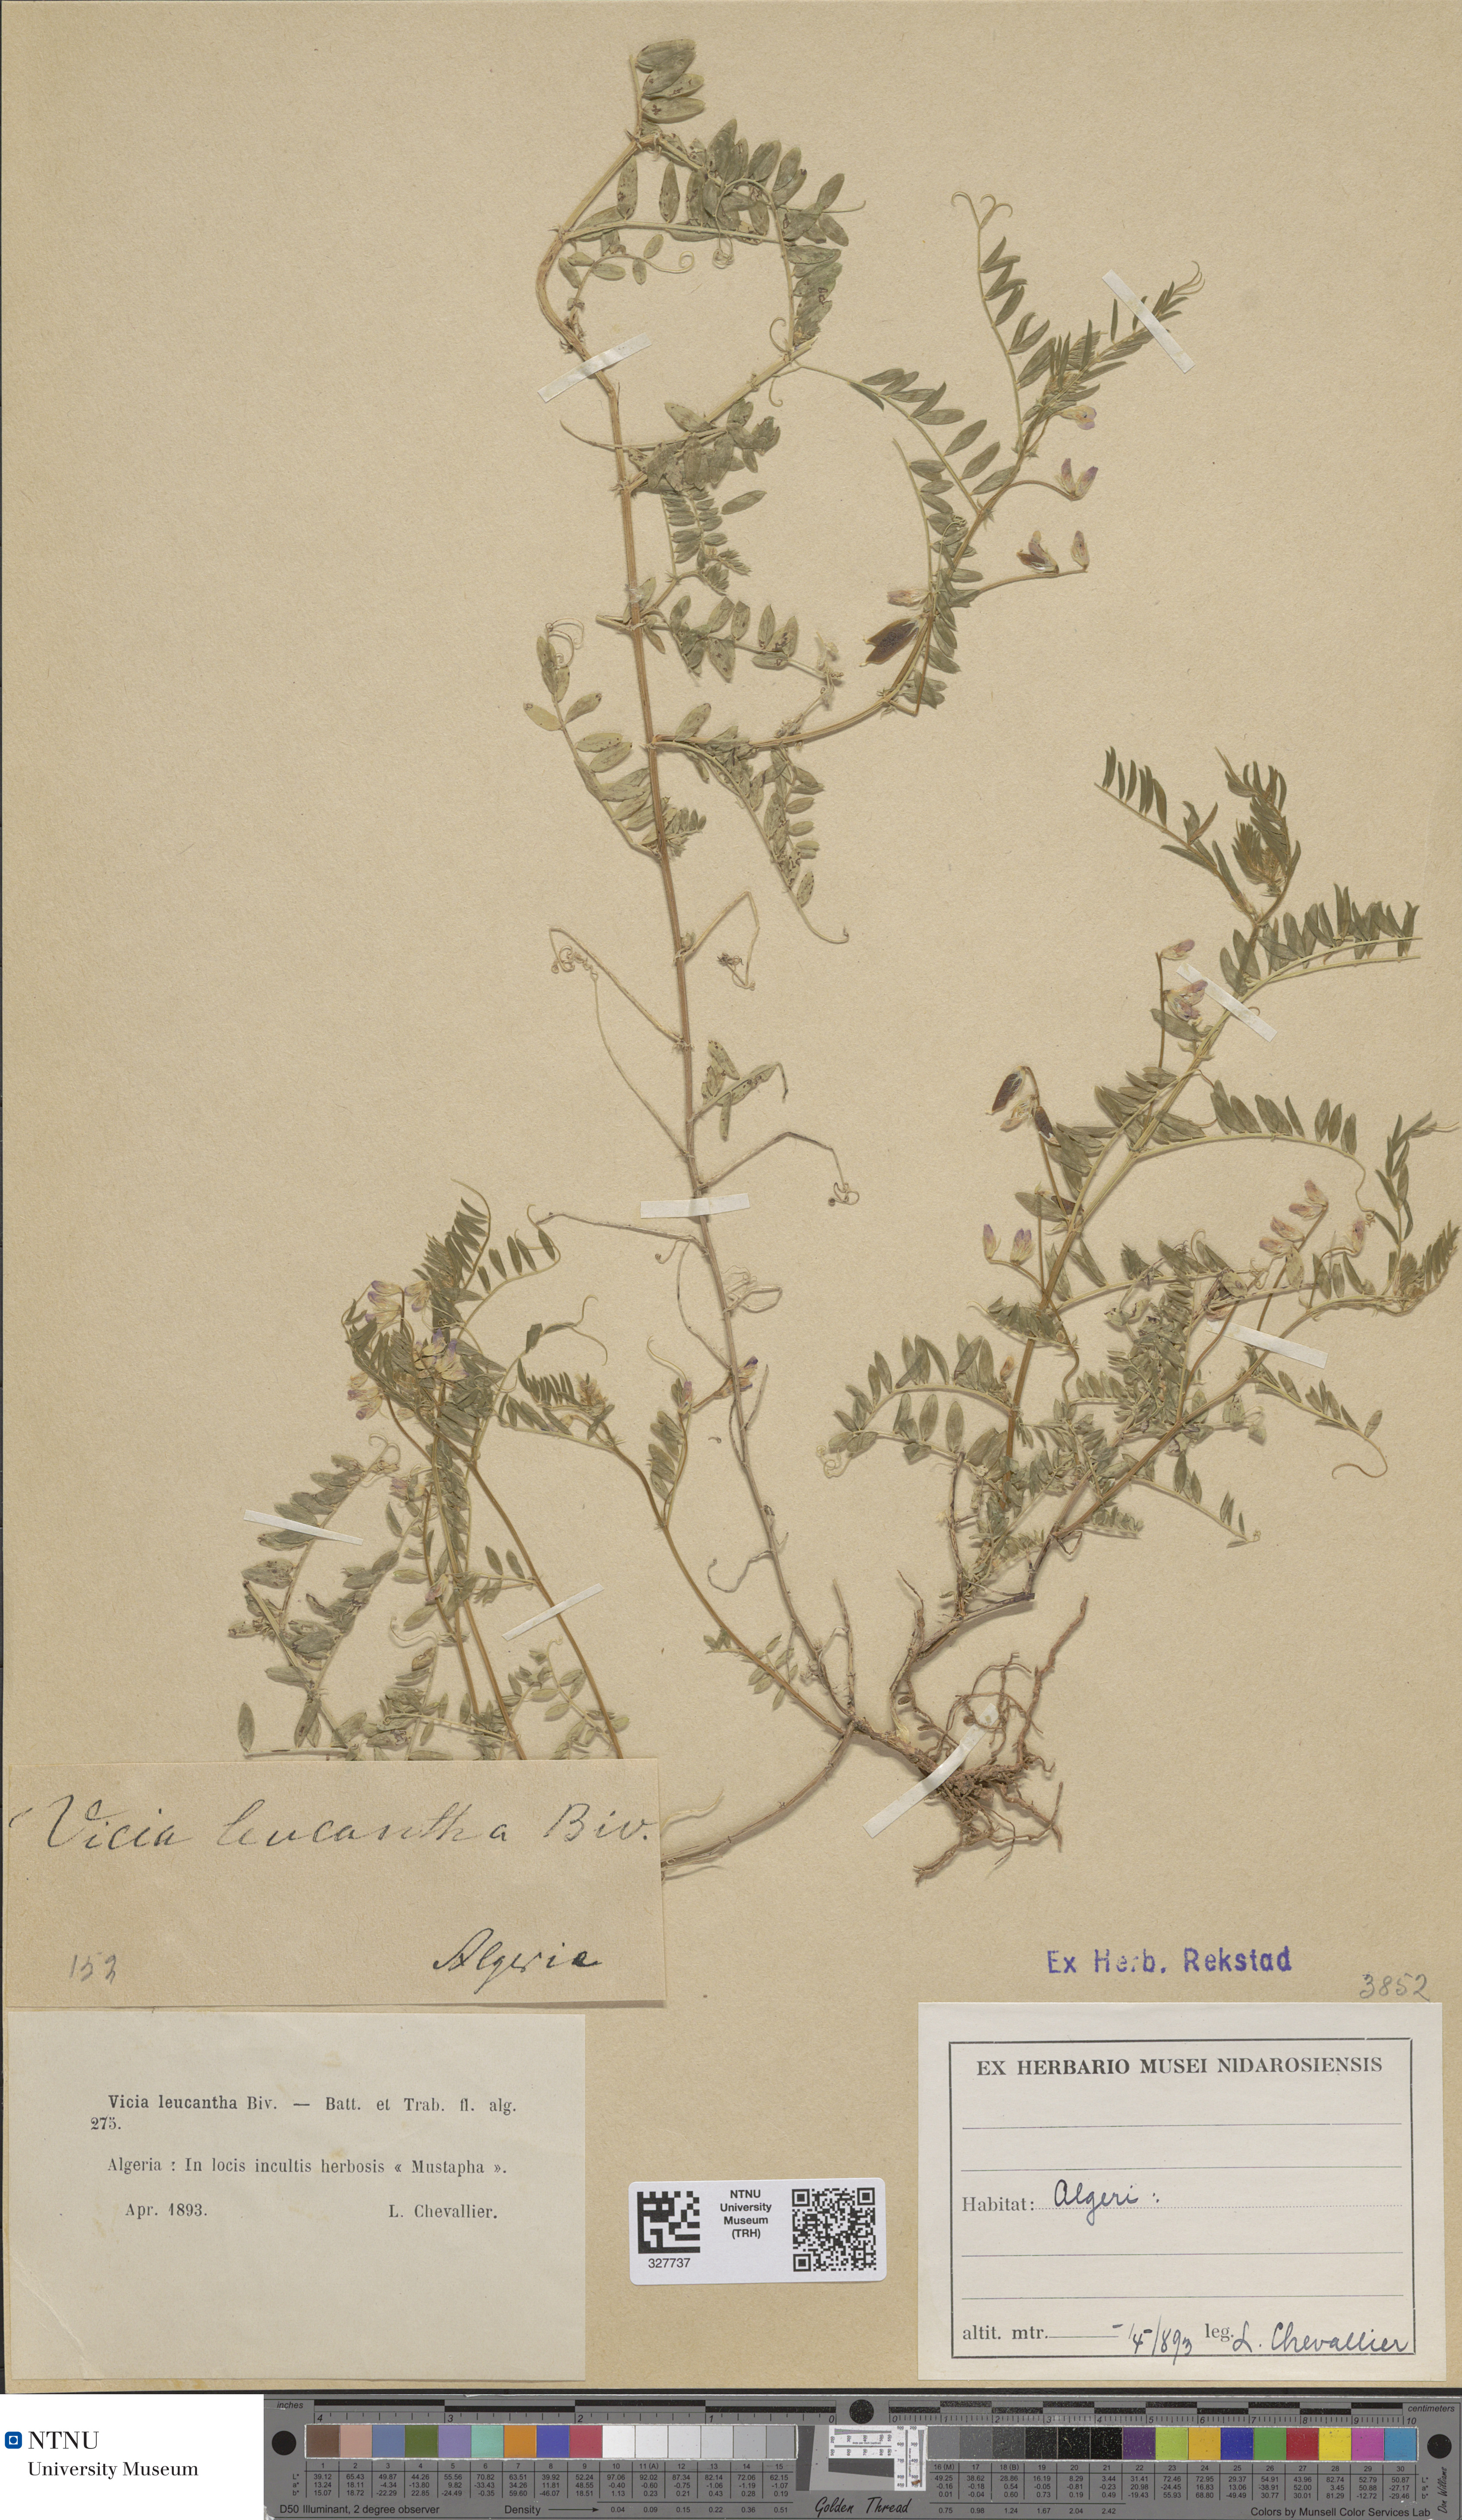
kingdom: Plantae
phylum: Tracheophyta
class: Magnoliopsida
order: Fabales
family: Fabaceae
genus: Vicia
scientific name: Vicia leucantha
